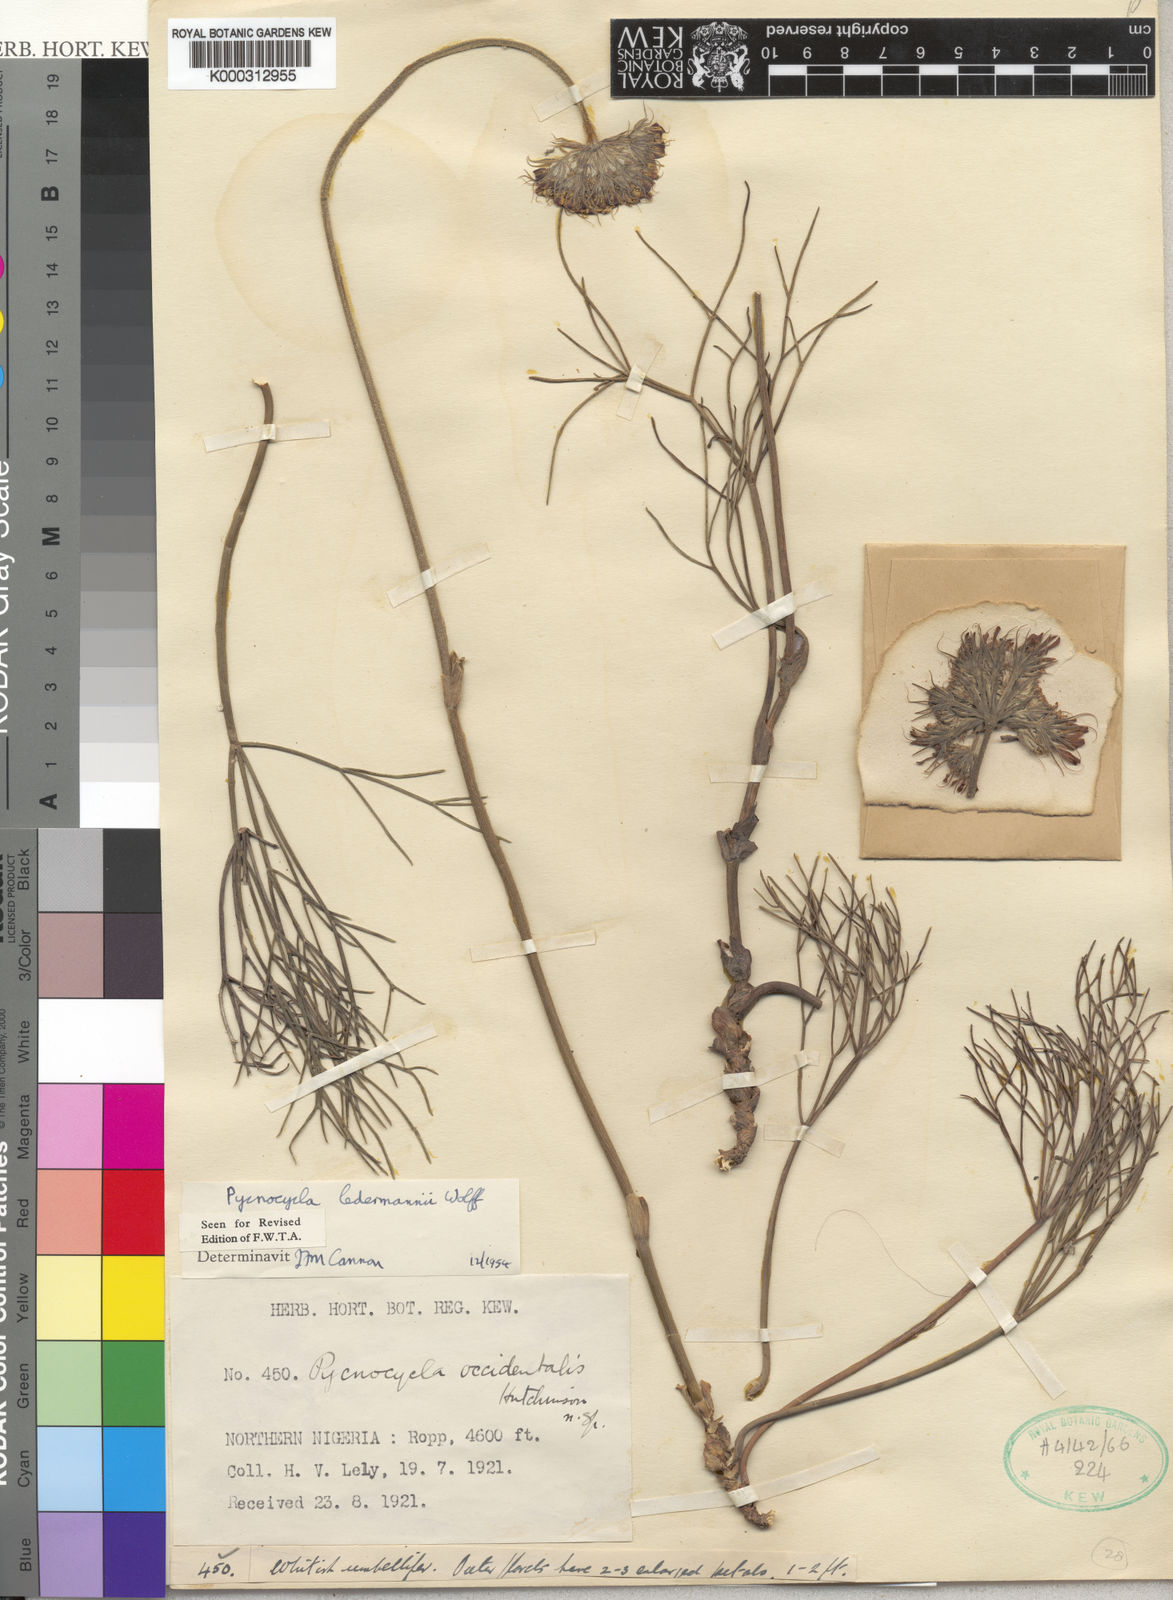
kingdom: Plantae
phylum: Tracheophyta
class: Magnoliopsida
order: Apiales
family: Apiaceae
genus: Pycnocycla
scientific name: Pycnocycla ledermannii
